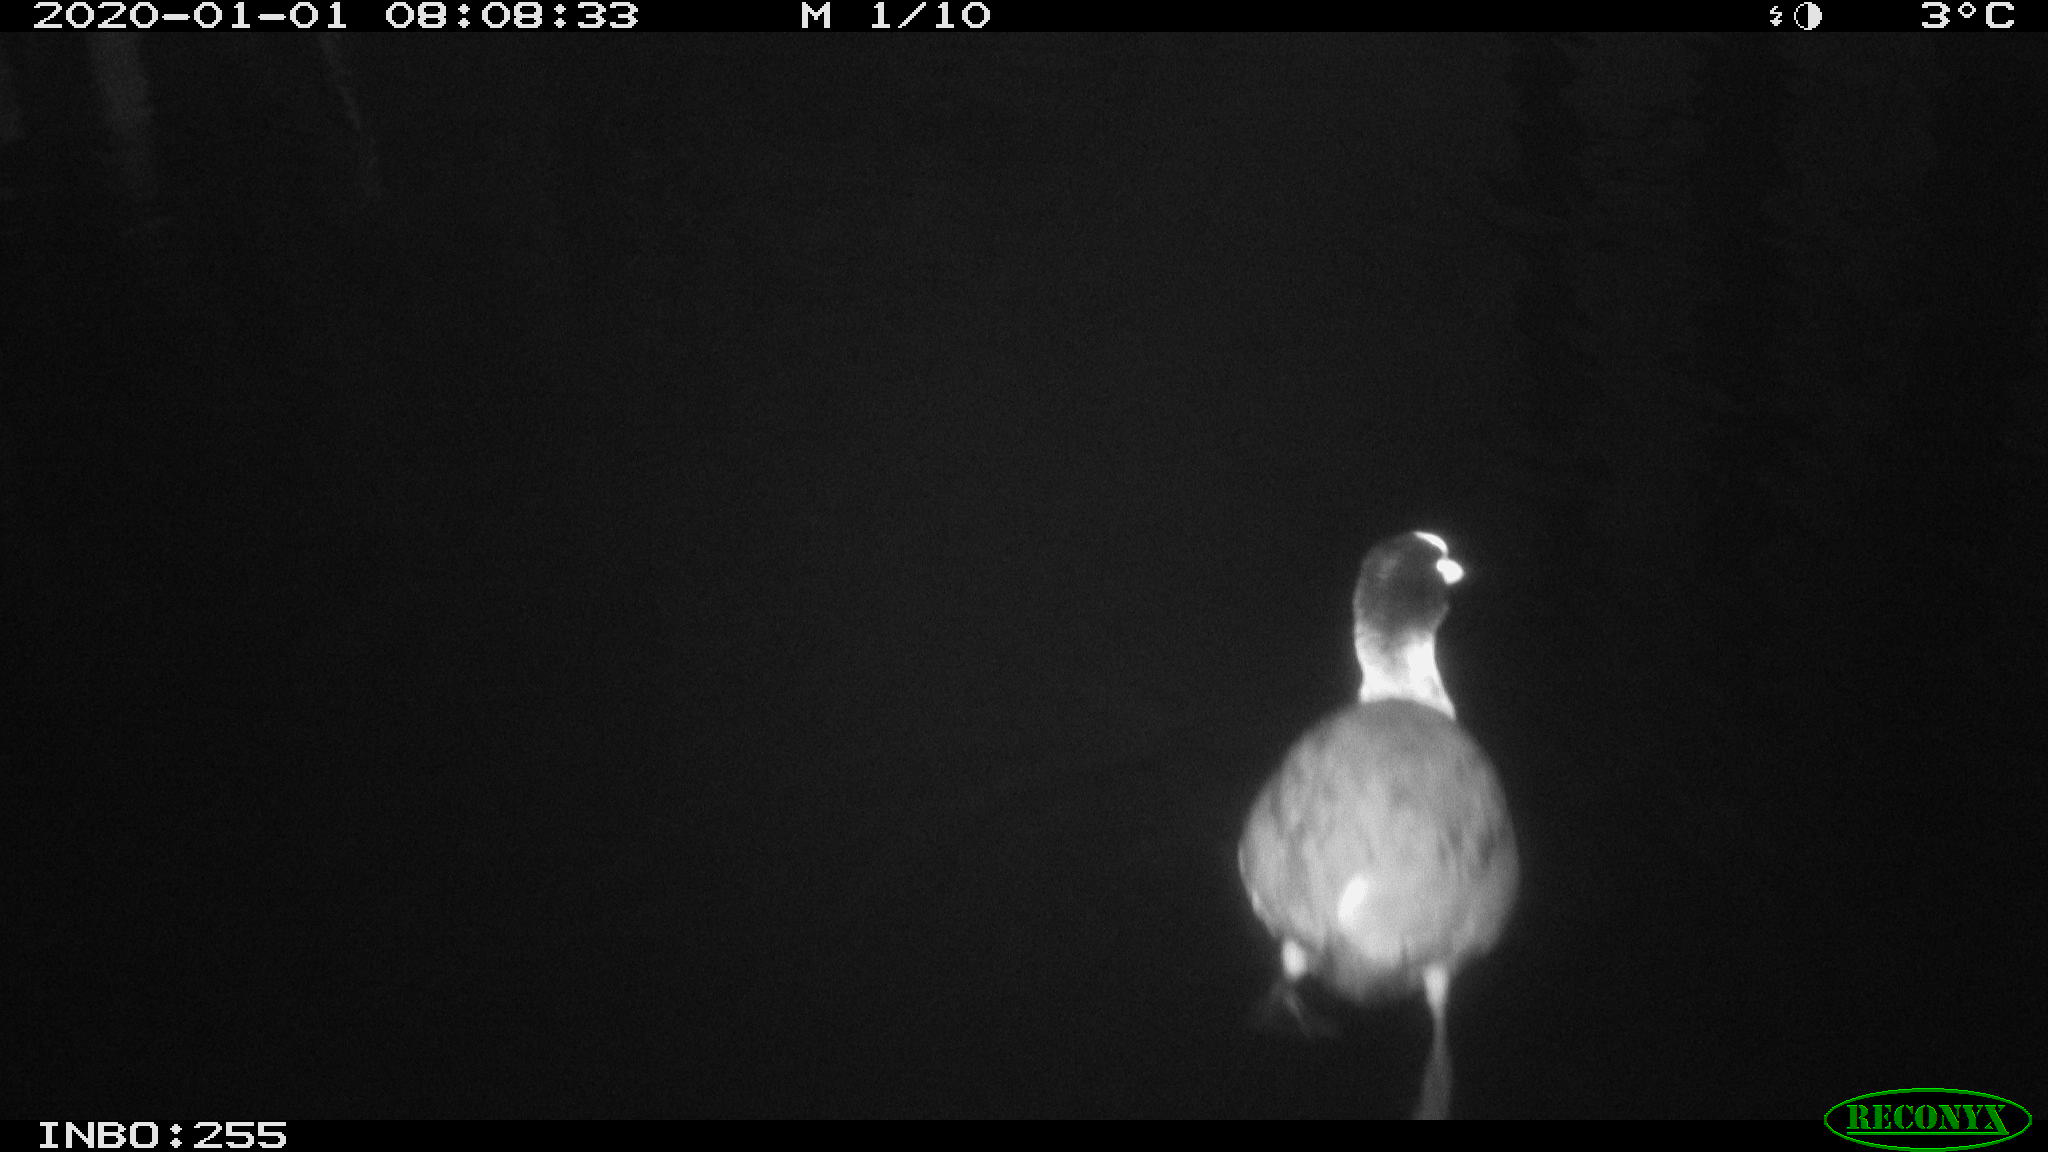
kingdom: Animalia
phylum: Chordata
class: Aves
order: Gruiformes
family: Rallidae
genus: Fulica
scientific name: Fulica atra
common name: Eurasian coot
